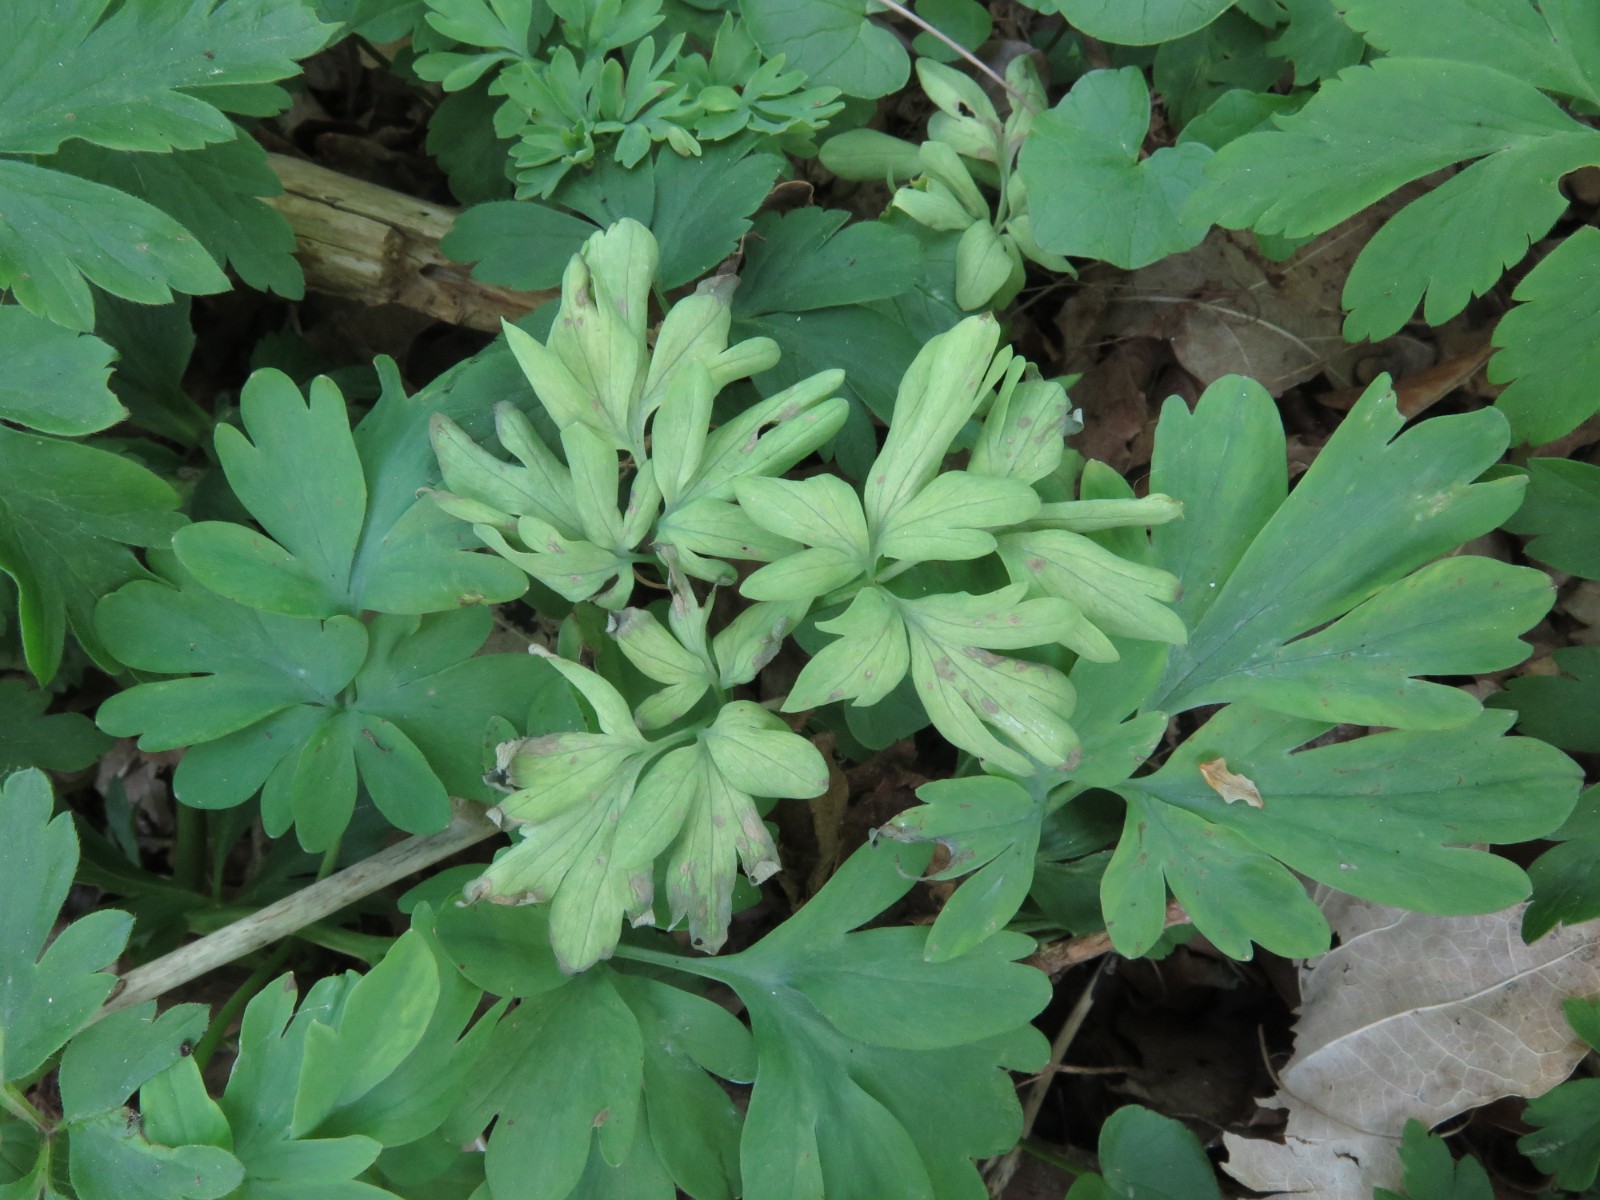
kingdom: Chromista
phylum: Oomycota
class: Peronosporea
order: Peronosporales
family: Peronosporaceae
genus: Peronospora
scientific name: Peronospora bulbocapni
